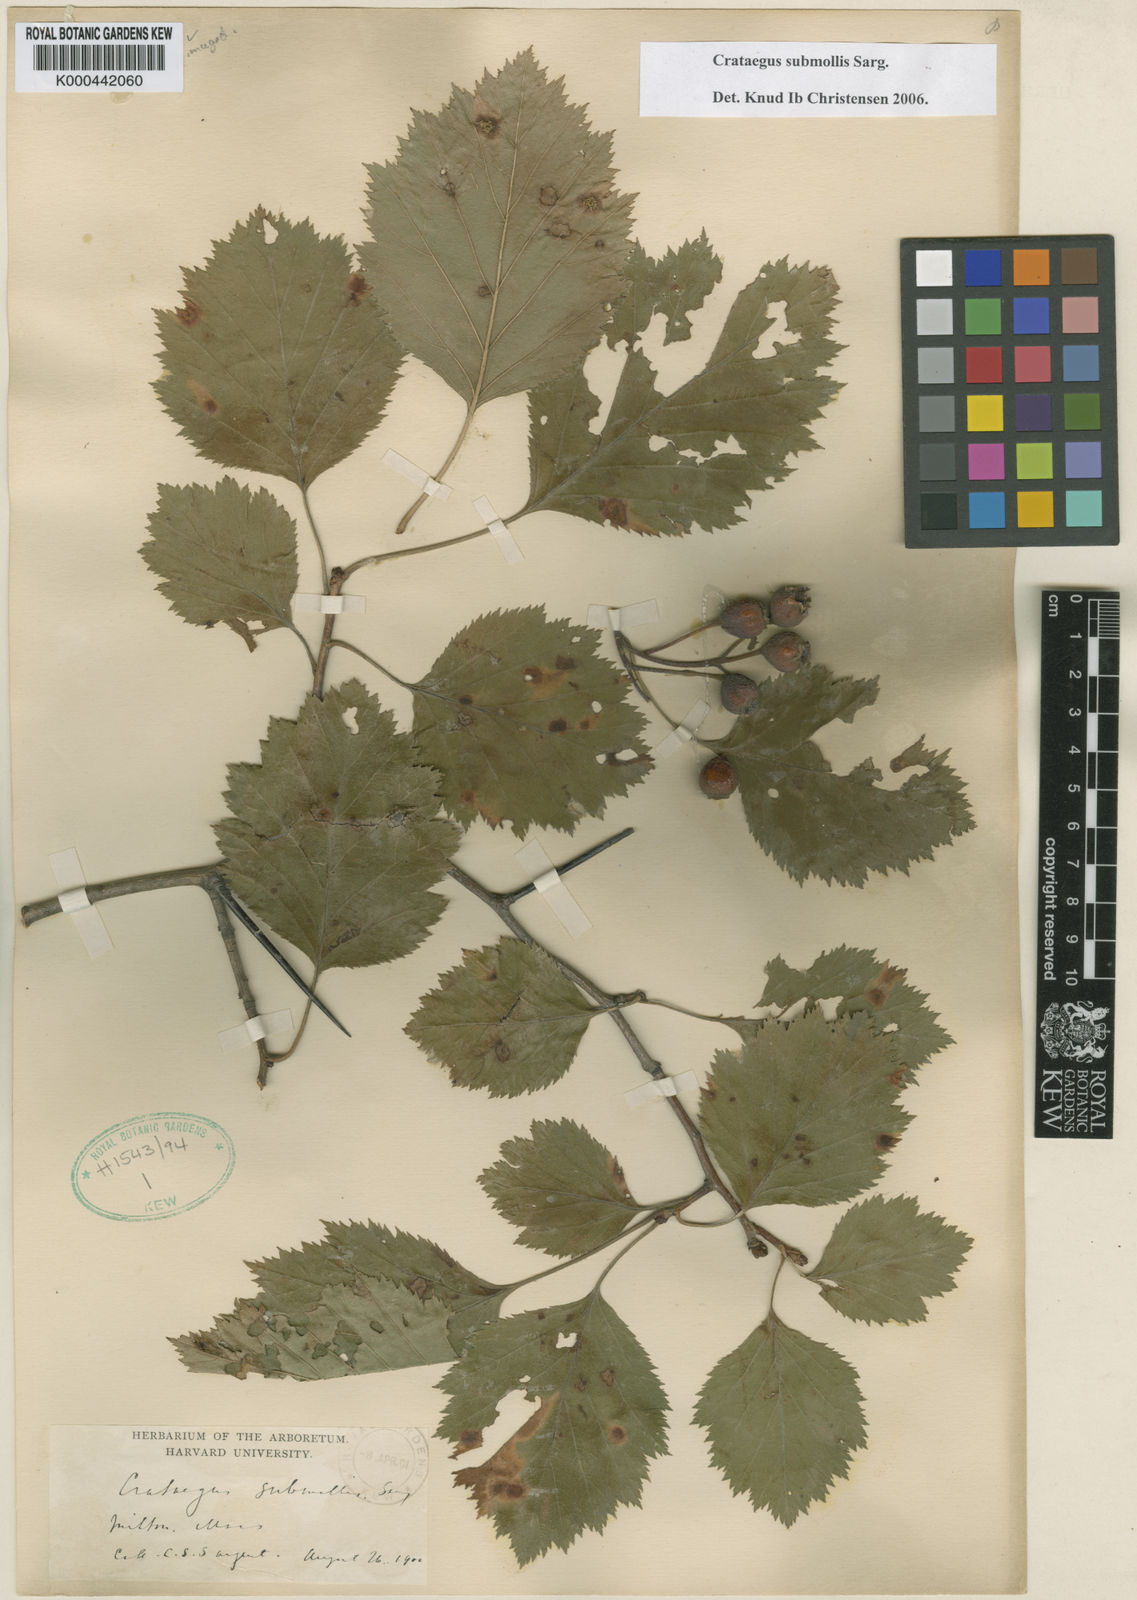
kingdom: Plantae
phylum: Tracheophyta
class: Magnoliopsida
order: Rosales
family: Rosaceae
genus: Crataegus
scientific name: Crataegus submollis
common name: Hairy cockspurthorn
